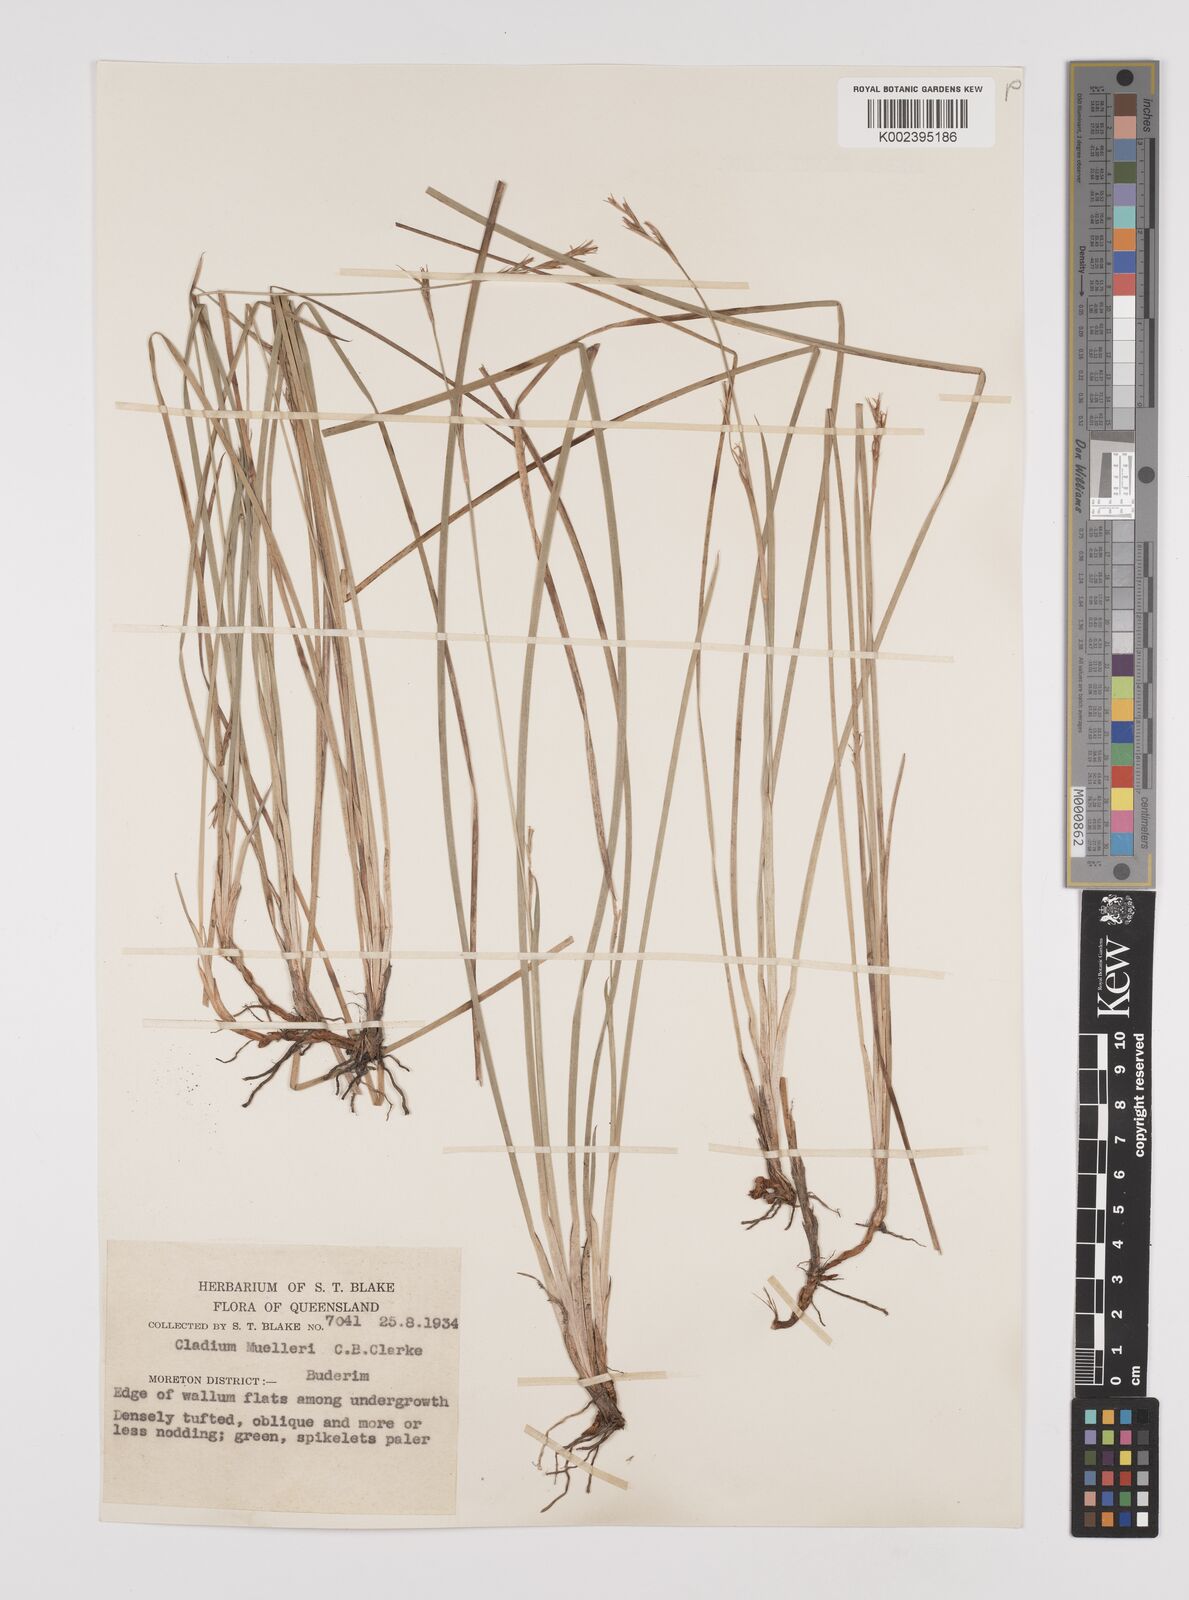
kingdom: Plantae
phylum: Tracheophyta
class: Liliopsida
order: Poales
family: Cyperaceae
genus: Machaerina
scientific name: Machaerina muelleri
